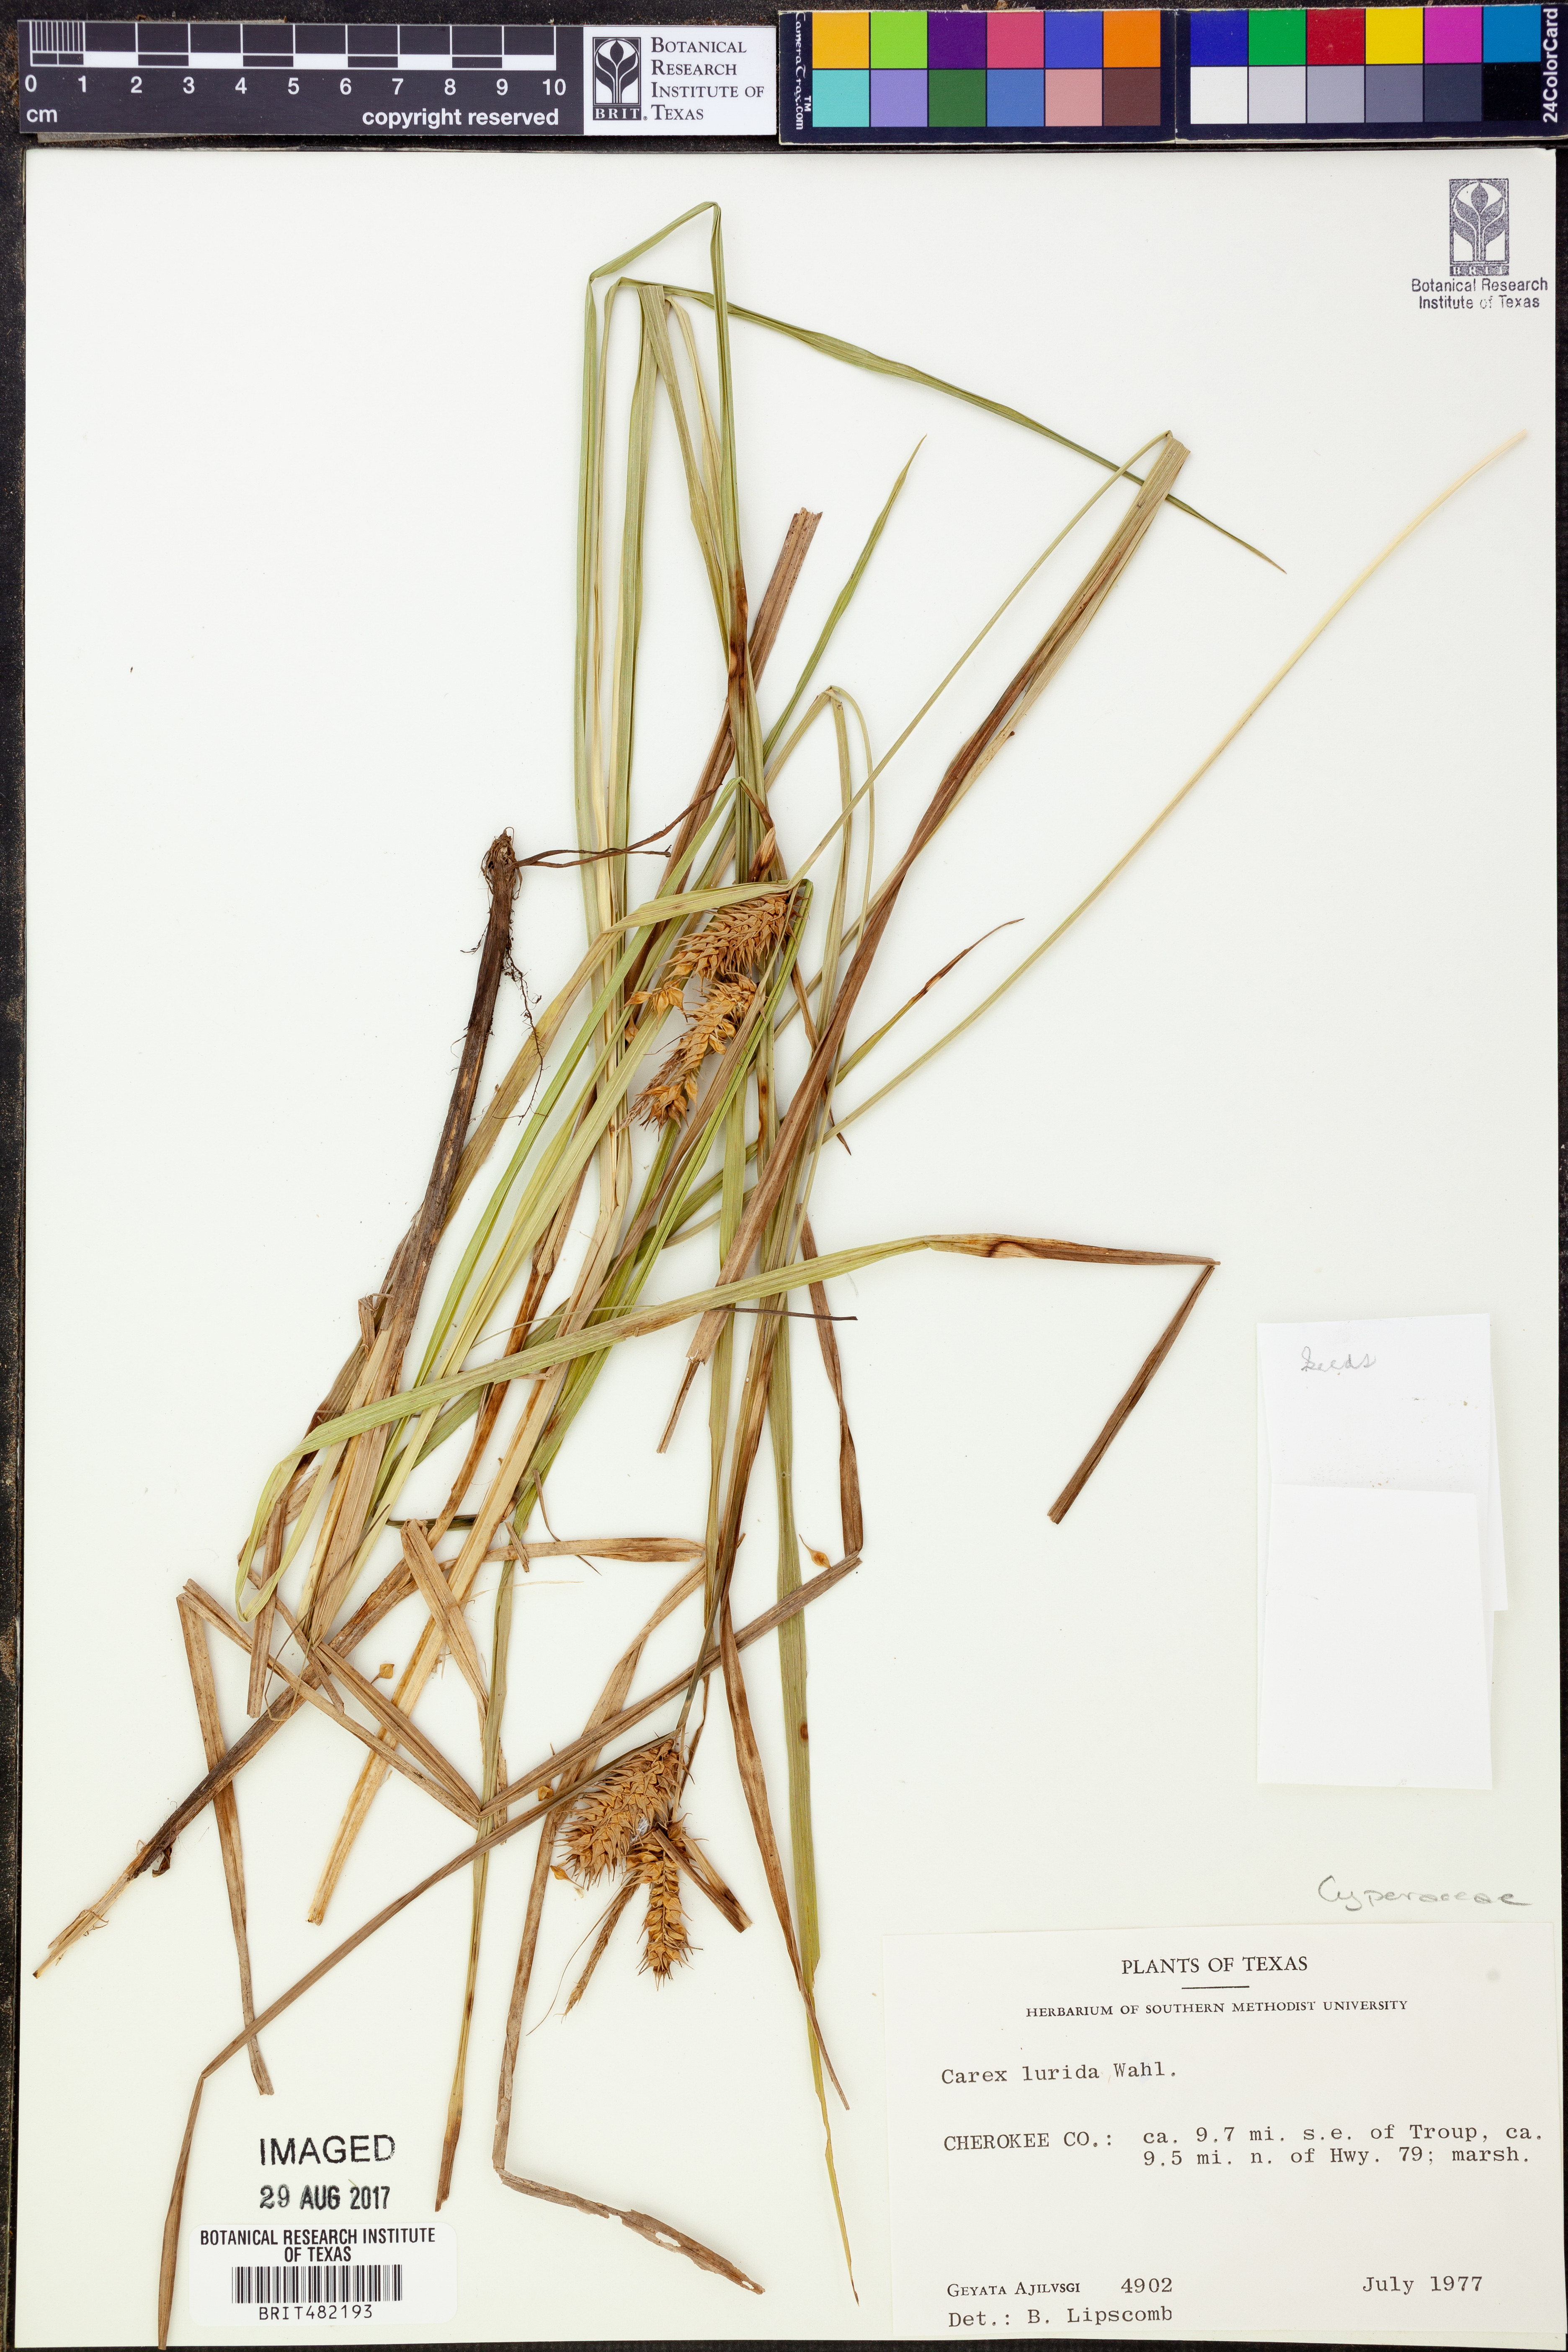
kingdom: Plantae
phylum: Tracheophyta
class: Liliopsida
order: Poales
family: Cyperaceae
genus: Carex
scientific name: Carex lurida
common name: Sallow sedge
